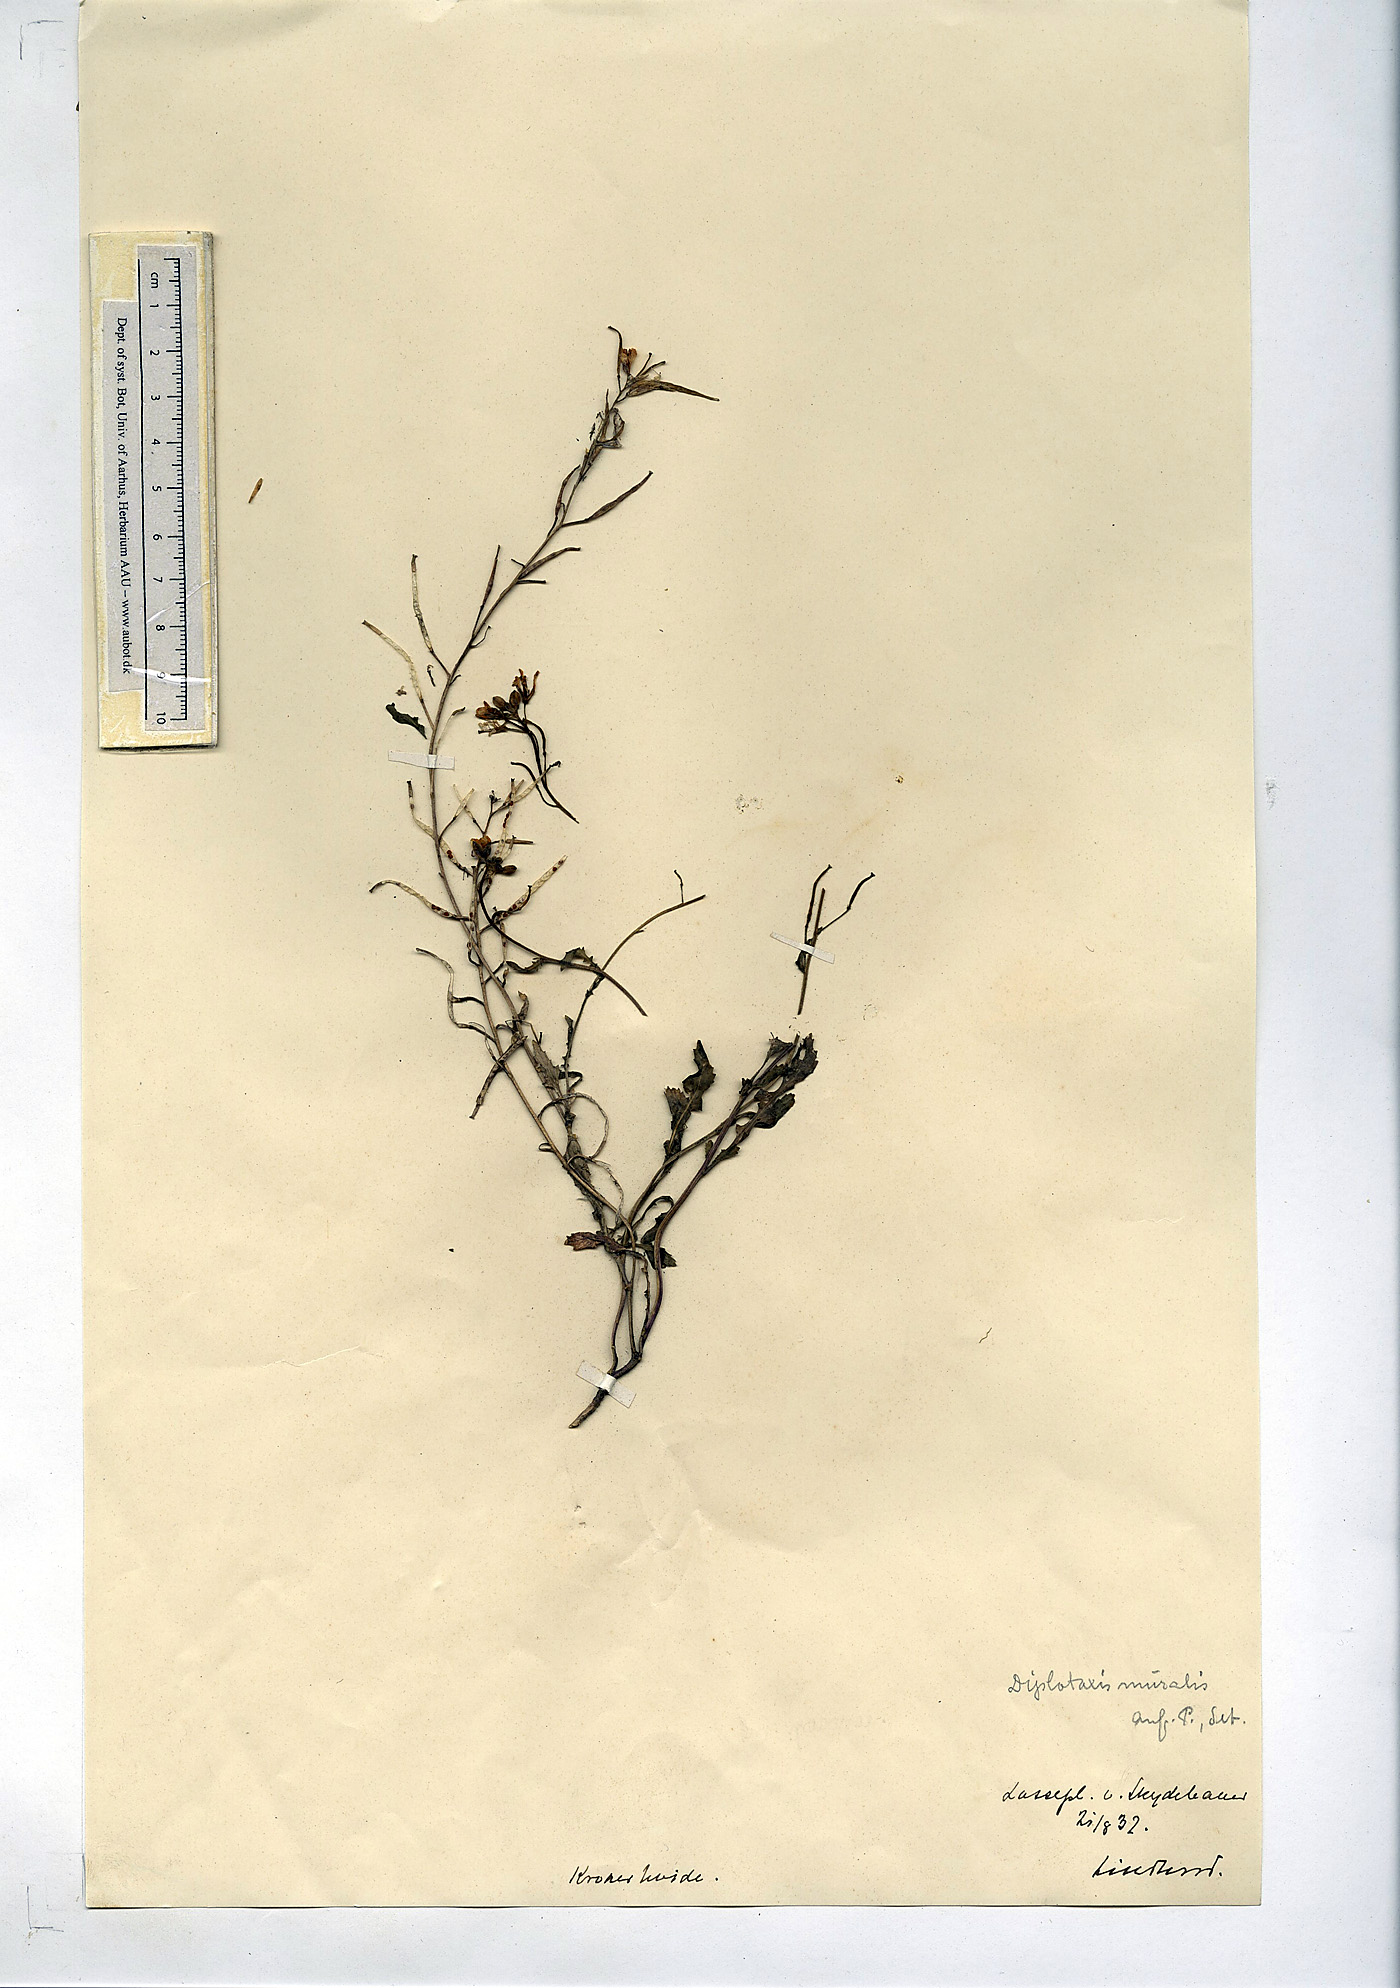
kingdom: Plantae
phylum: Tracheophyta
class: Magnoliopsida
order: Brassicales
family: Brassicaceae
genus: Diplotaxis
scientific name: Diplotaxis muralis
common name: Annual wall-rocket
